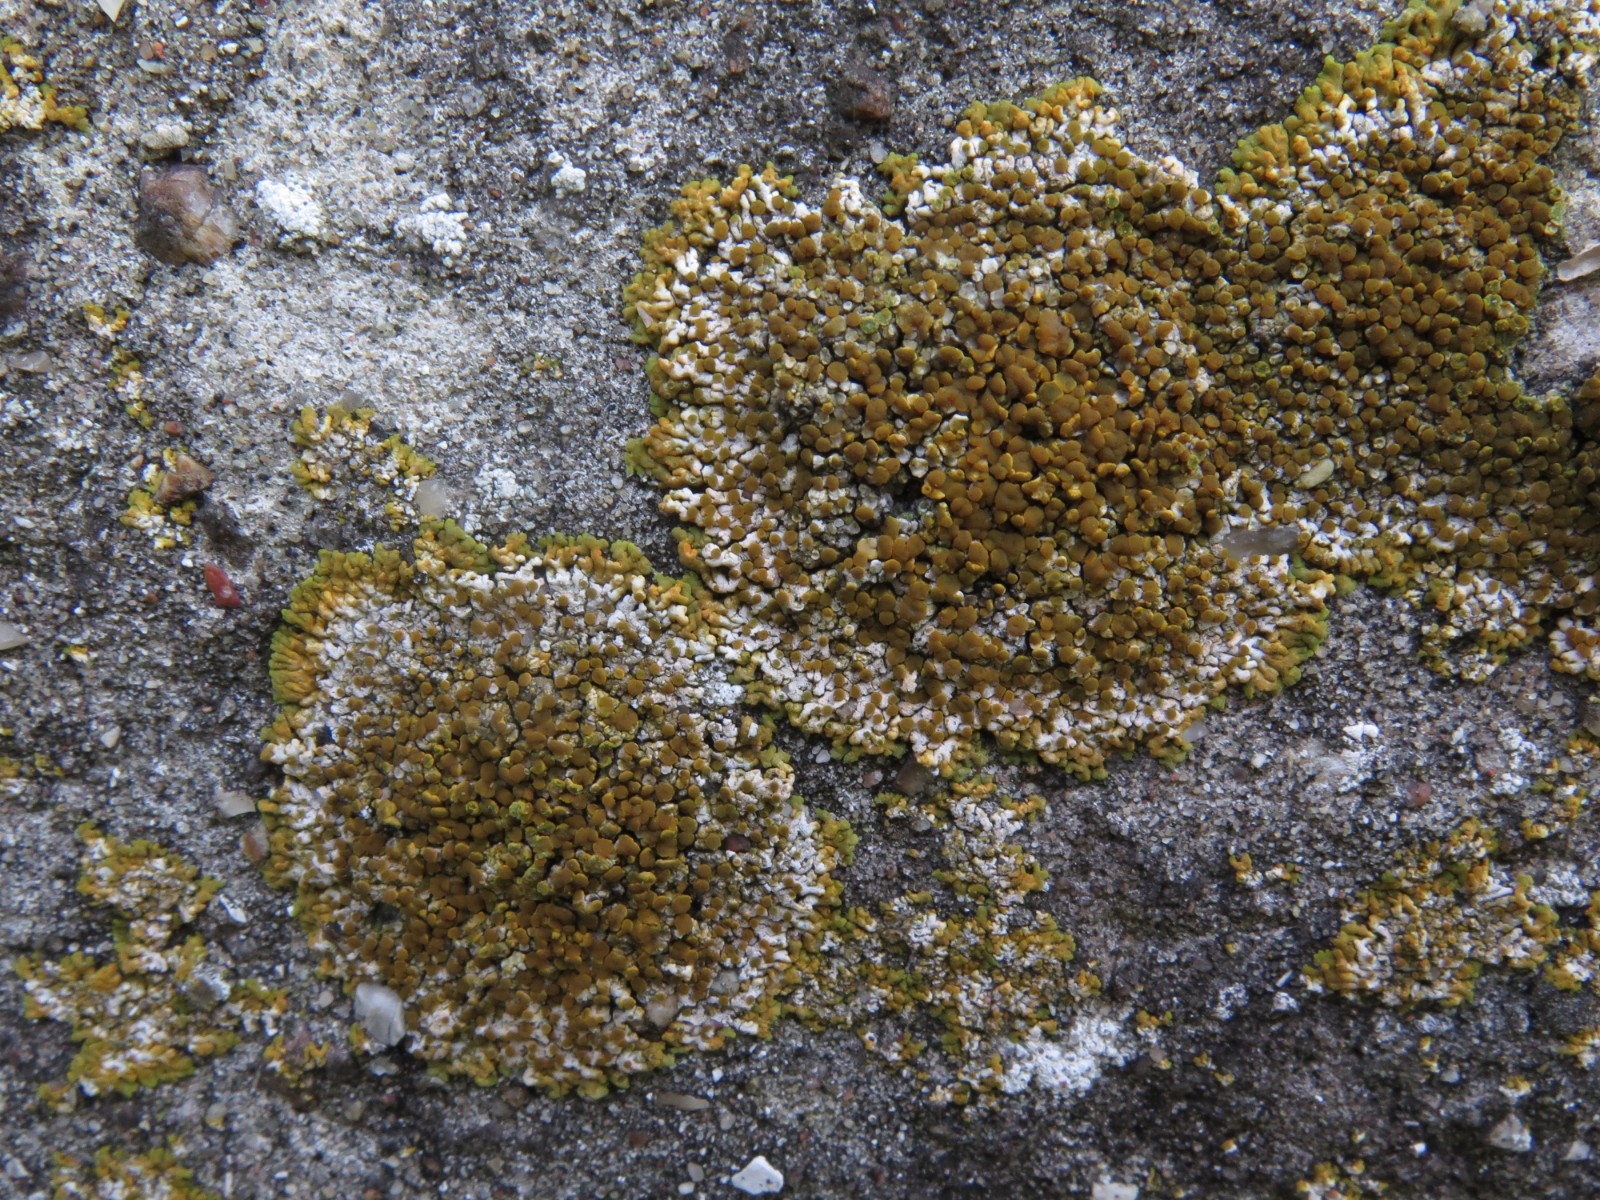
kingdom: Fungi
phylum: Ascomycota
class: Lecanoromycetes
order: Teloschistales
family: Teloschistaceae
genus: Calogaya
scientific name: Calogaya pusilla
